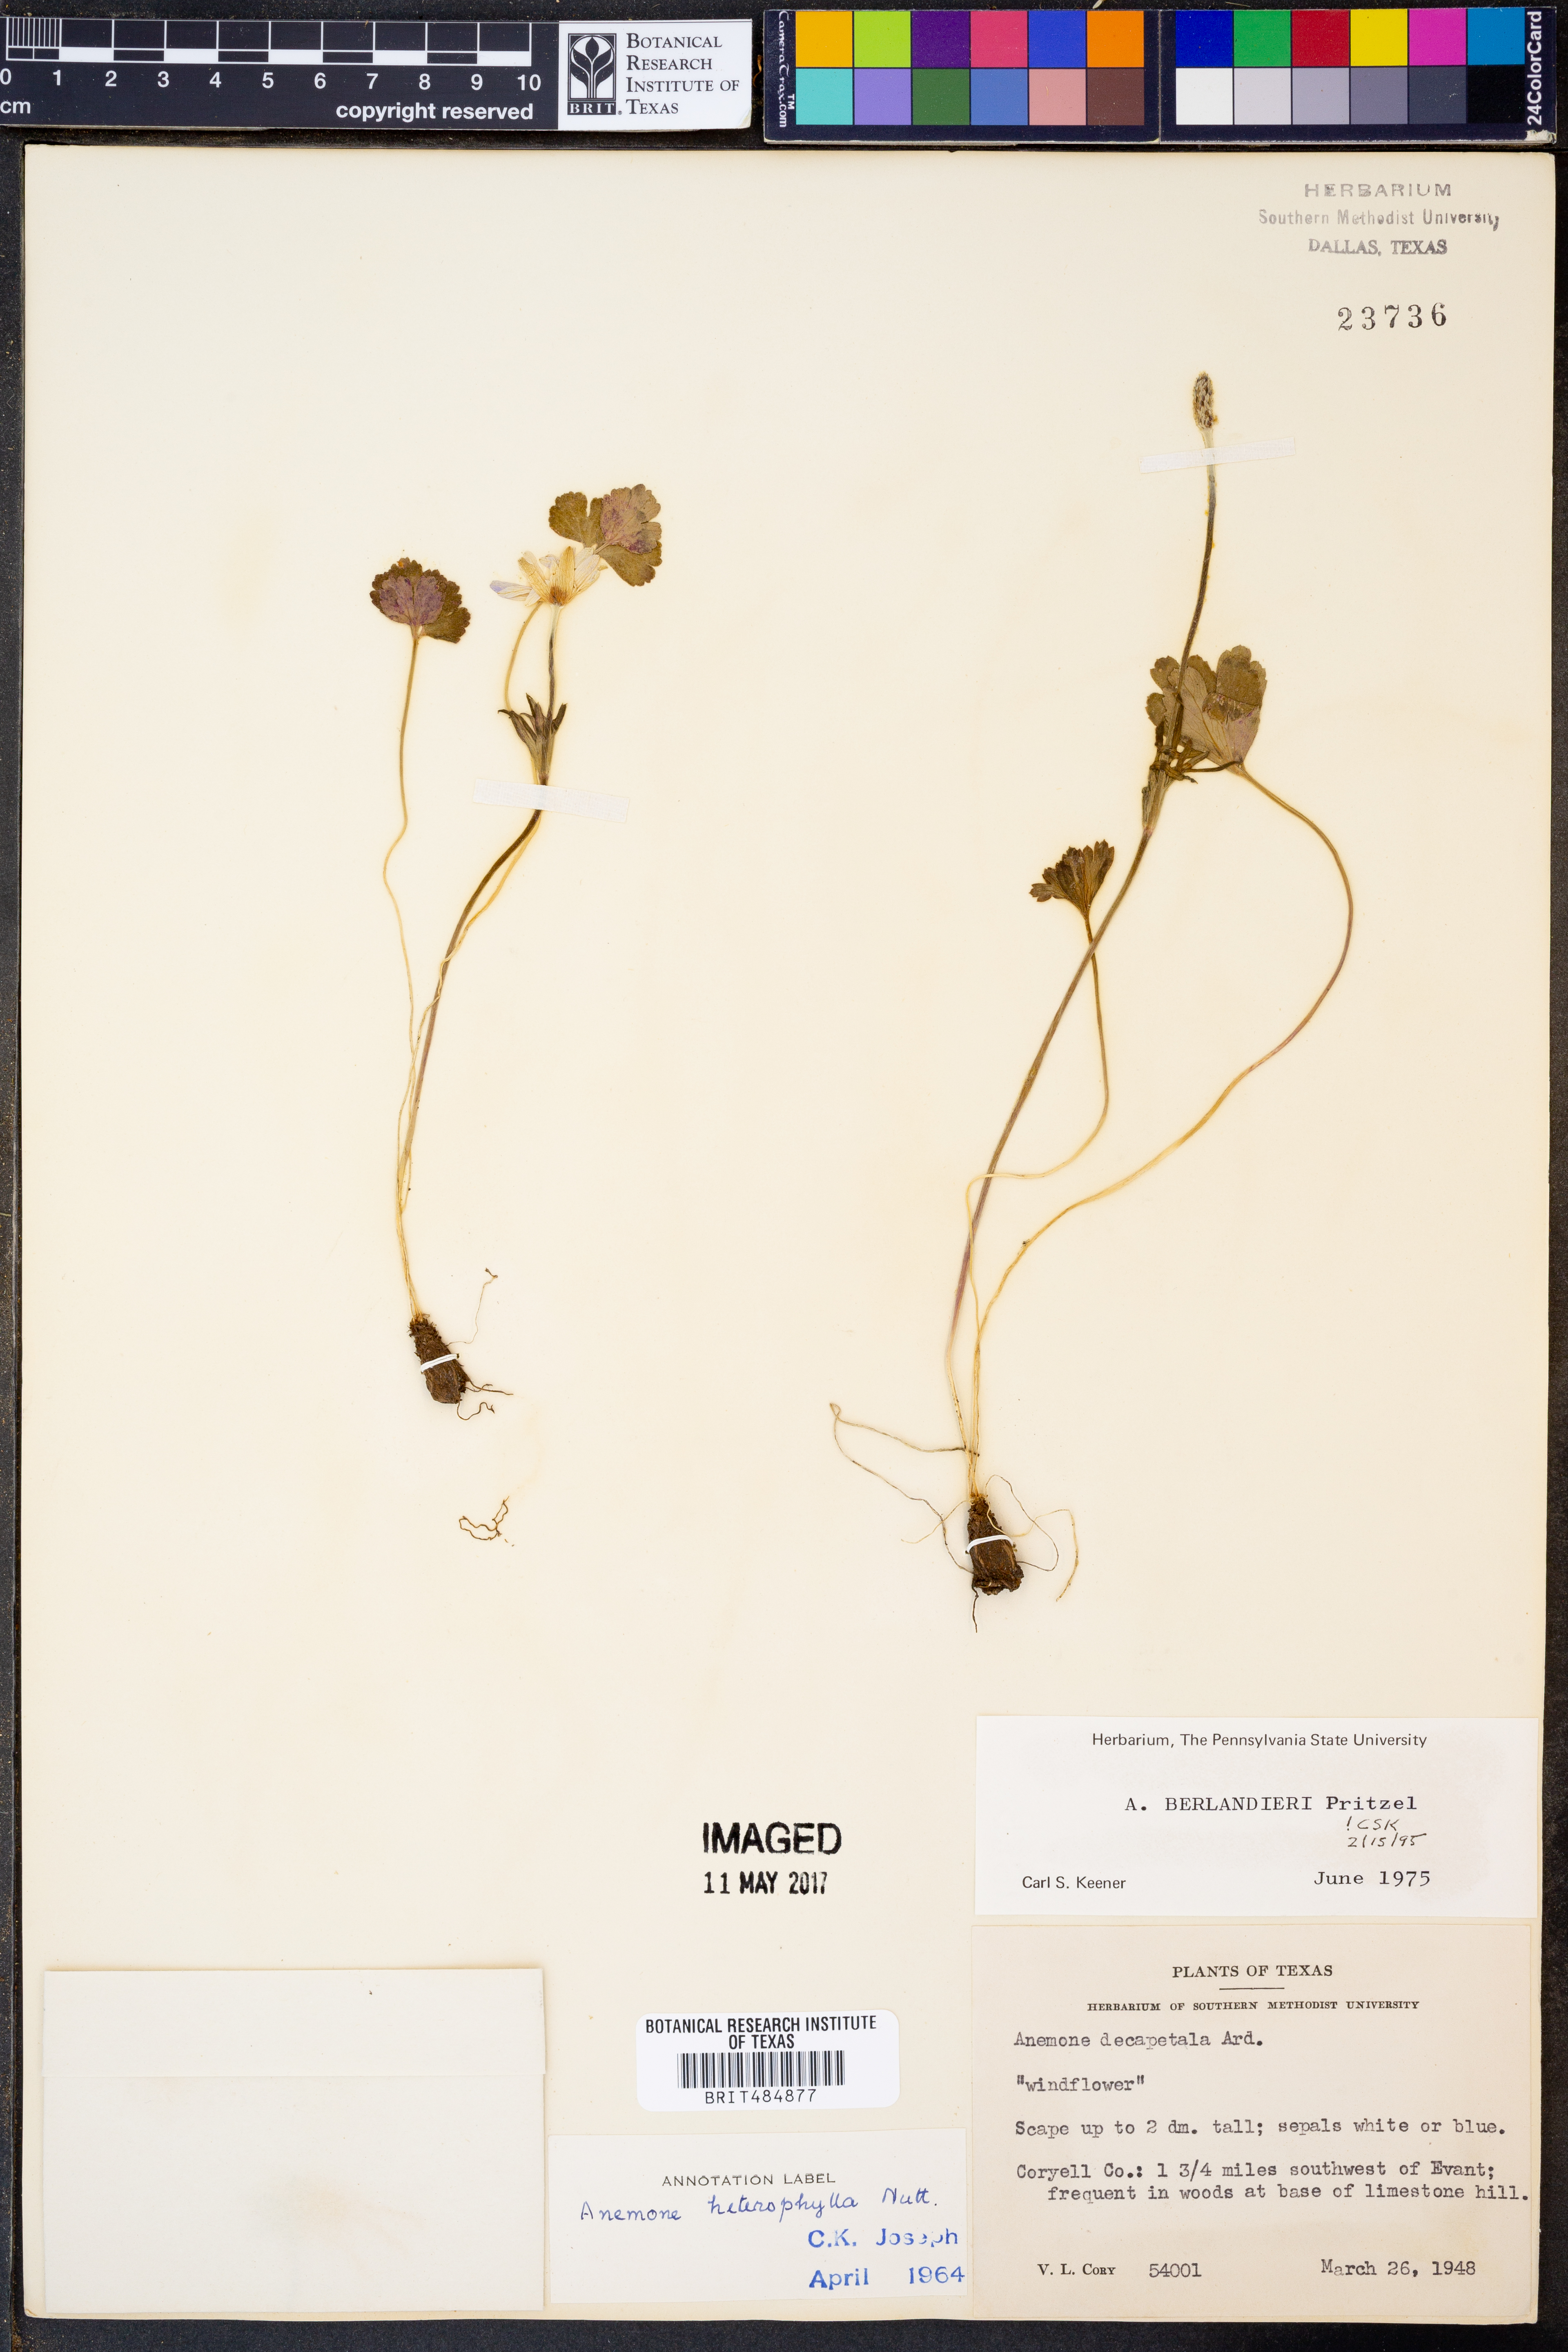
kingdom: Plantae
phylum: Tracheophyta
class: Magnoliopsida
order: Ranunculales
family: Ranunculaceae
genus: Anemone
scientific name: Anemone berlandieri
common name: Ten-petal anemone
